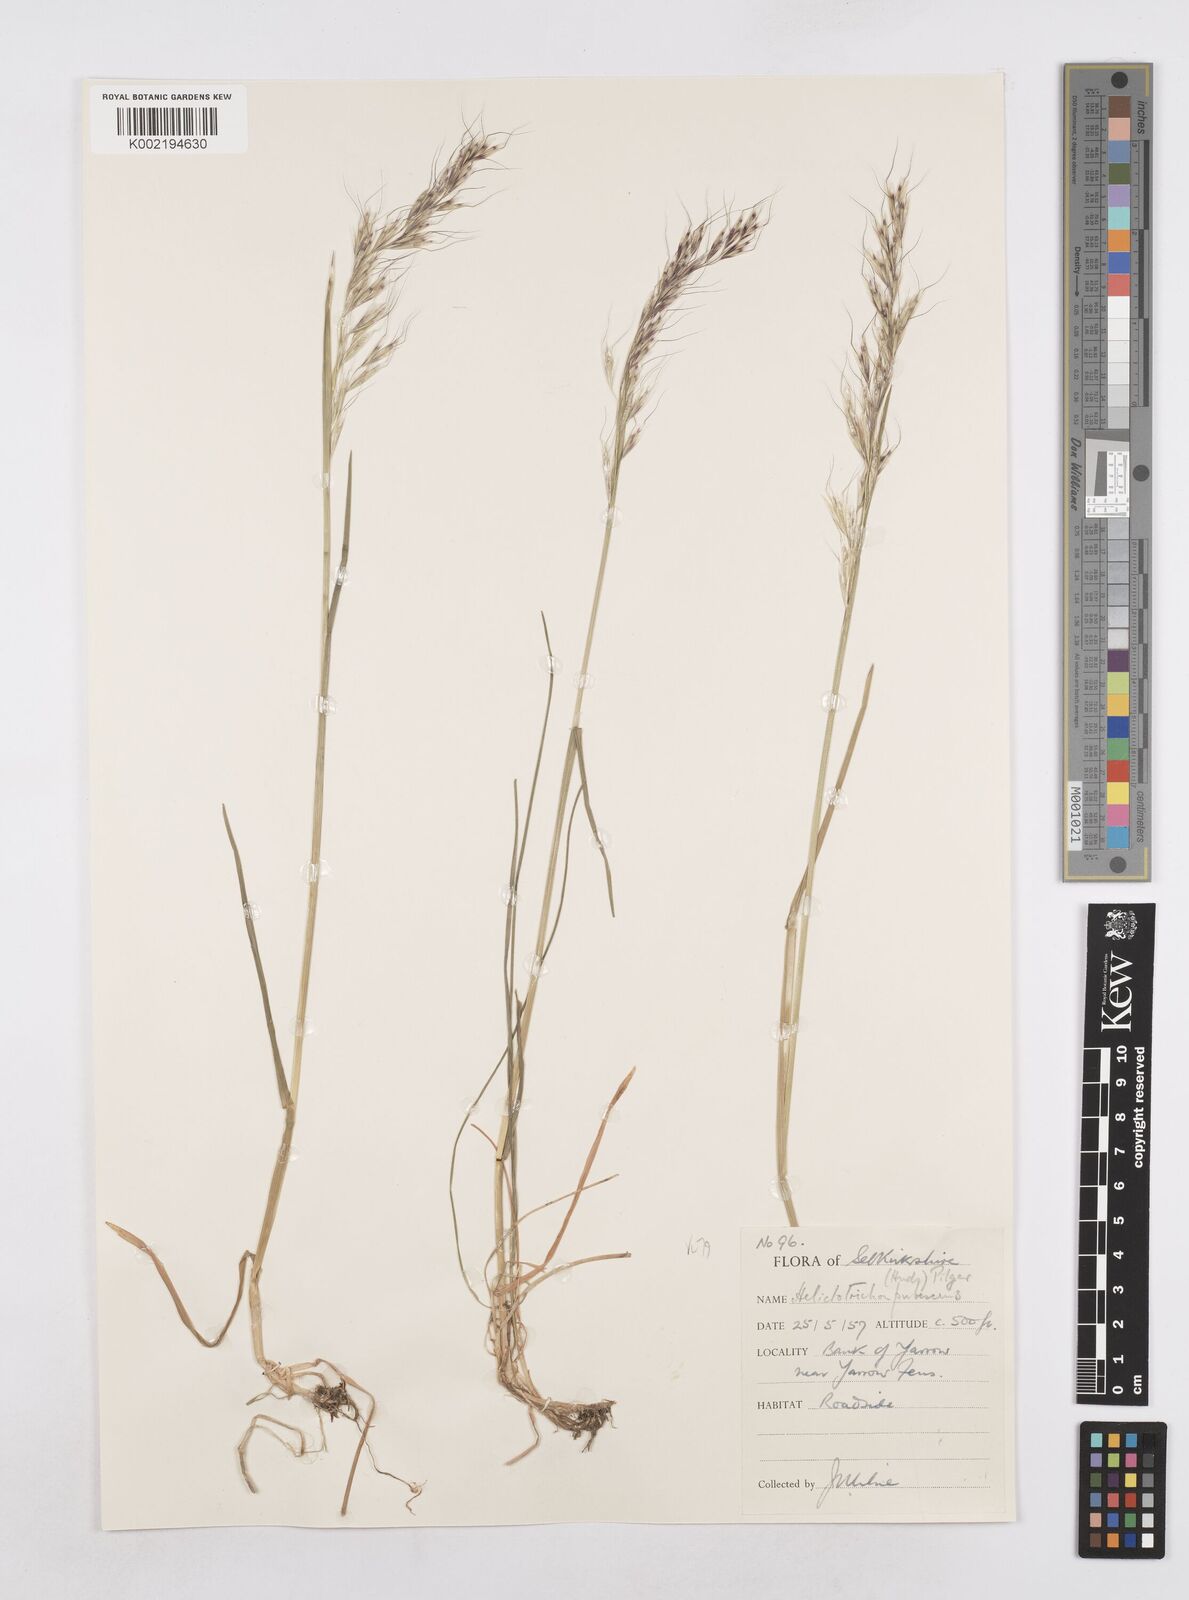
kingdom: Plantae
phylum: Tracheophyta
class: Liliopsida
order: Poales
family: Poaceae
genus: Avenula
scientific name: Avenula pubescens
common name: Downy alpine oatgrass
